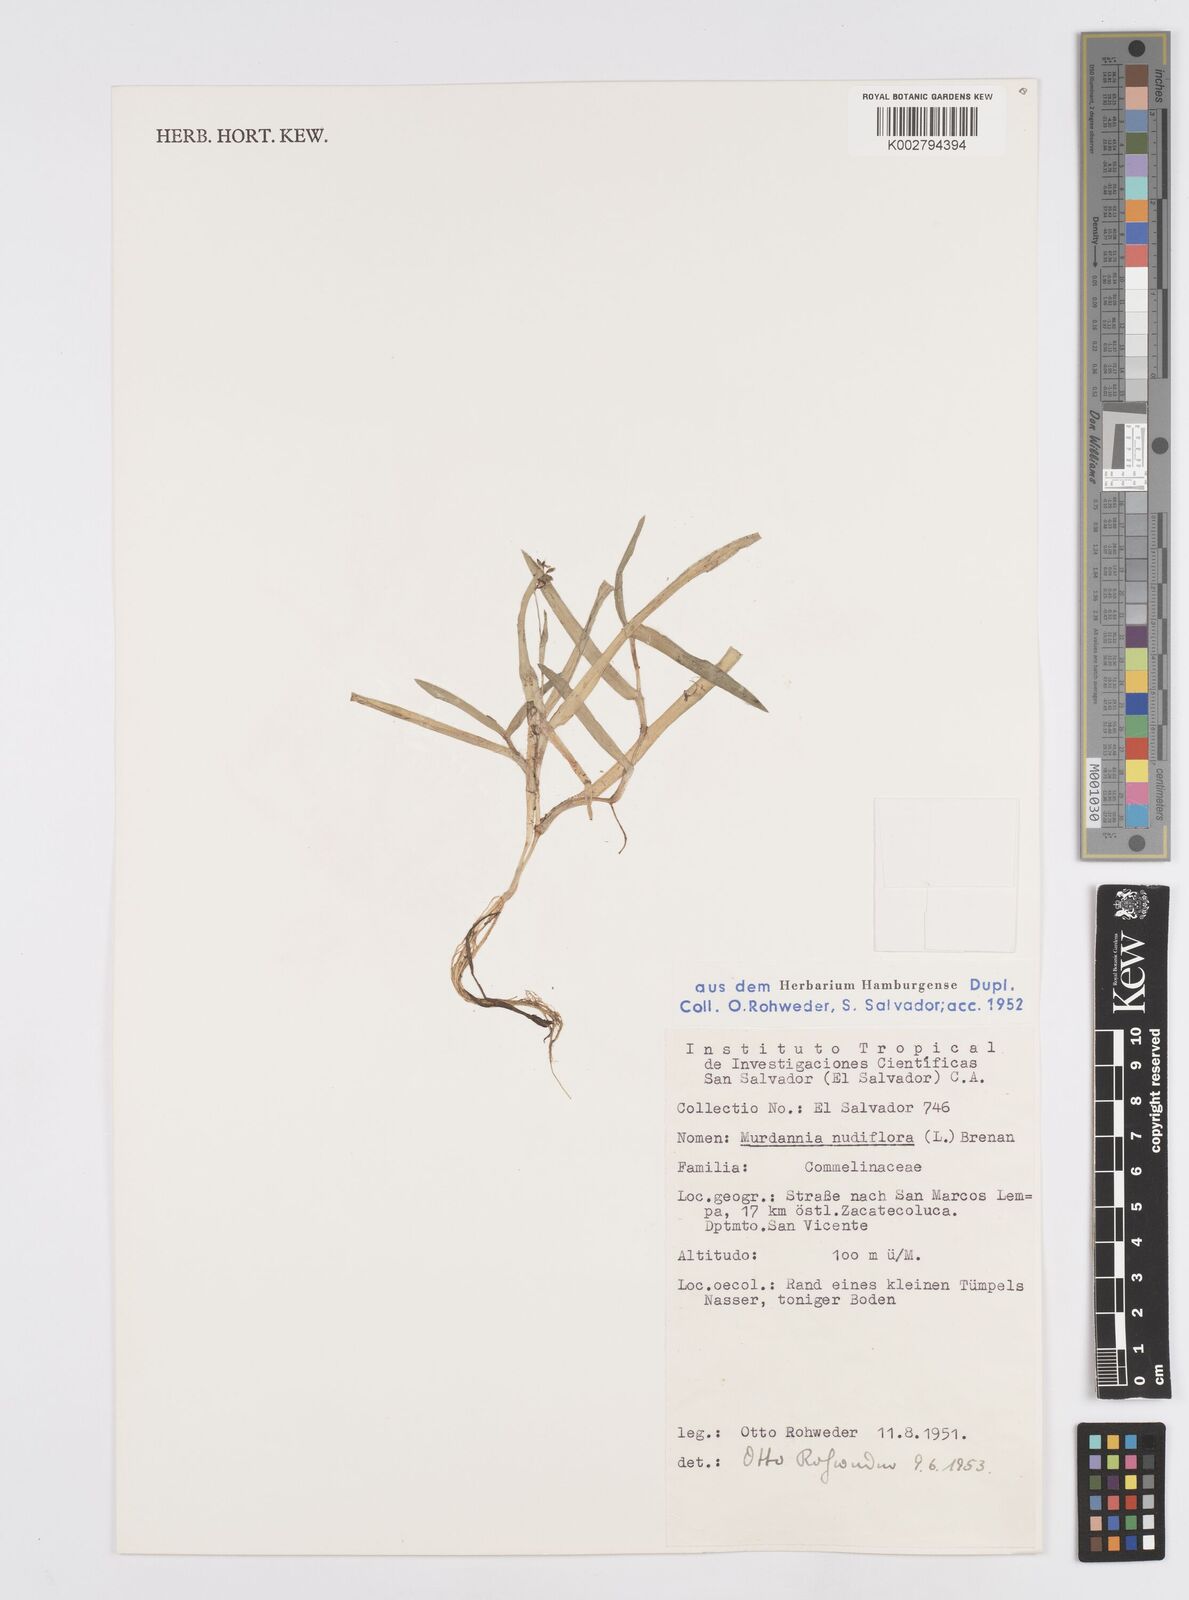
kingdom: Plantae
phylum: Tracheophyta
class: Liliopsida
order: Commelinales
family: Commelinaceae
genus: Murdannia
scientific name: Murdannia nudiflora
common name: Nakedstem dewflower
